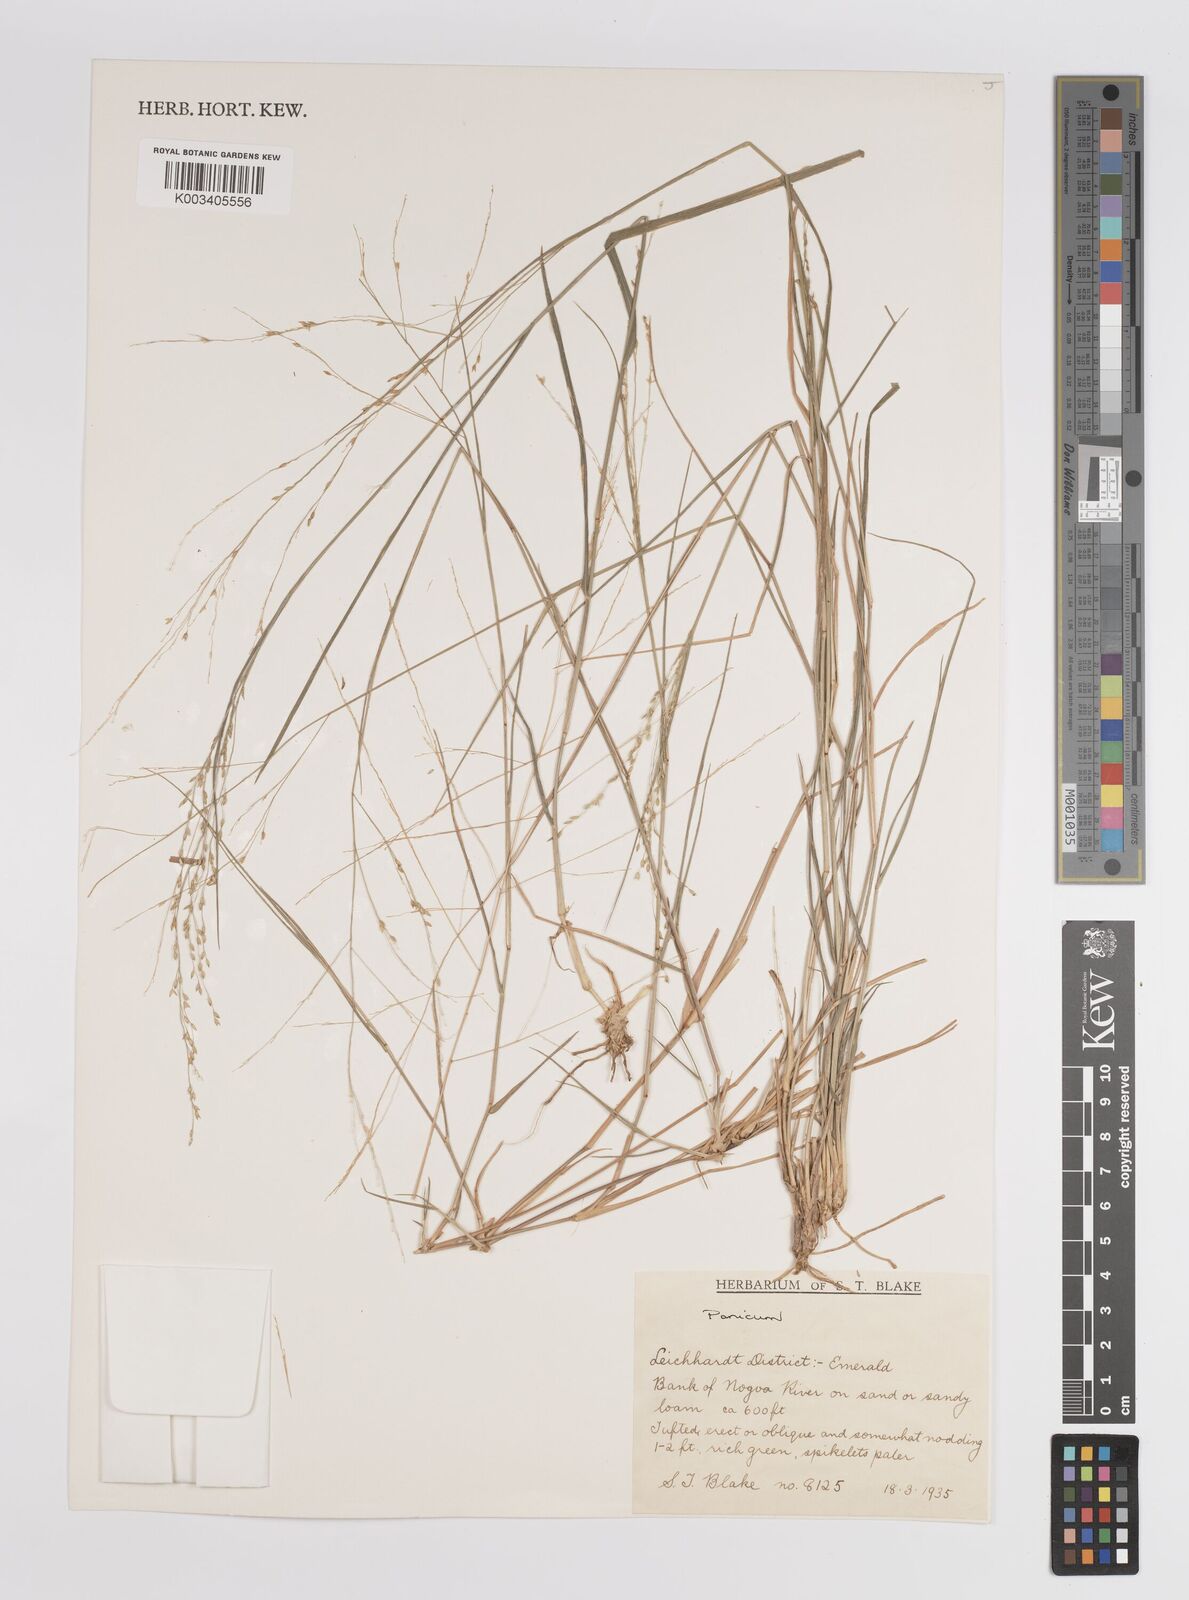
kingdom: Plantae
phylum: Tracheophyta
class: Liliopsida
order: Poales
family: Poaceae
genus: Panicum
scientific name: Panicum
